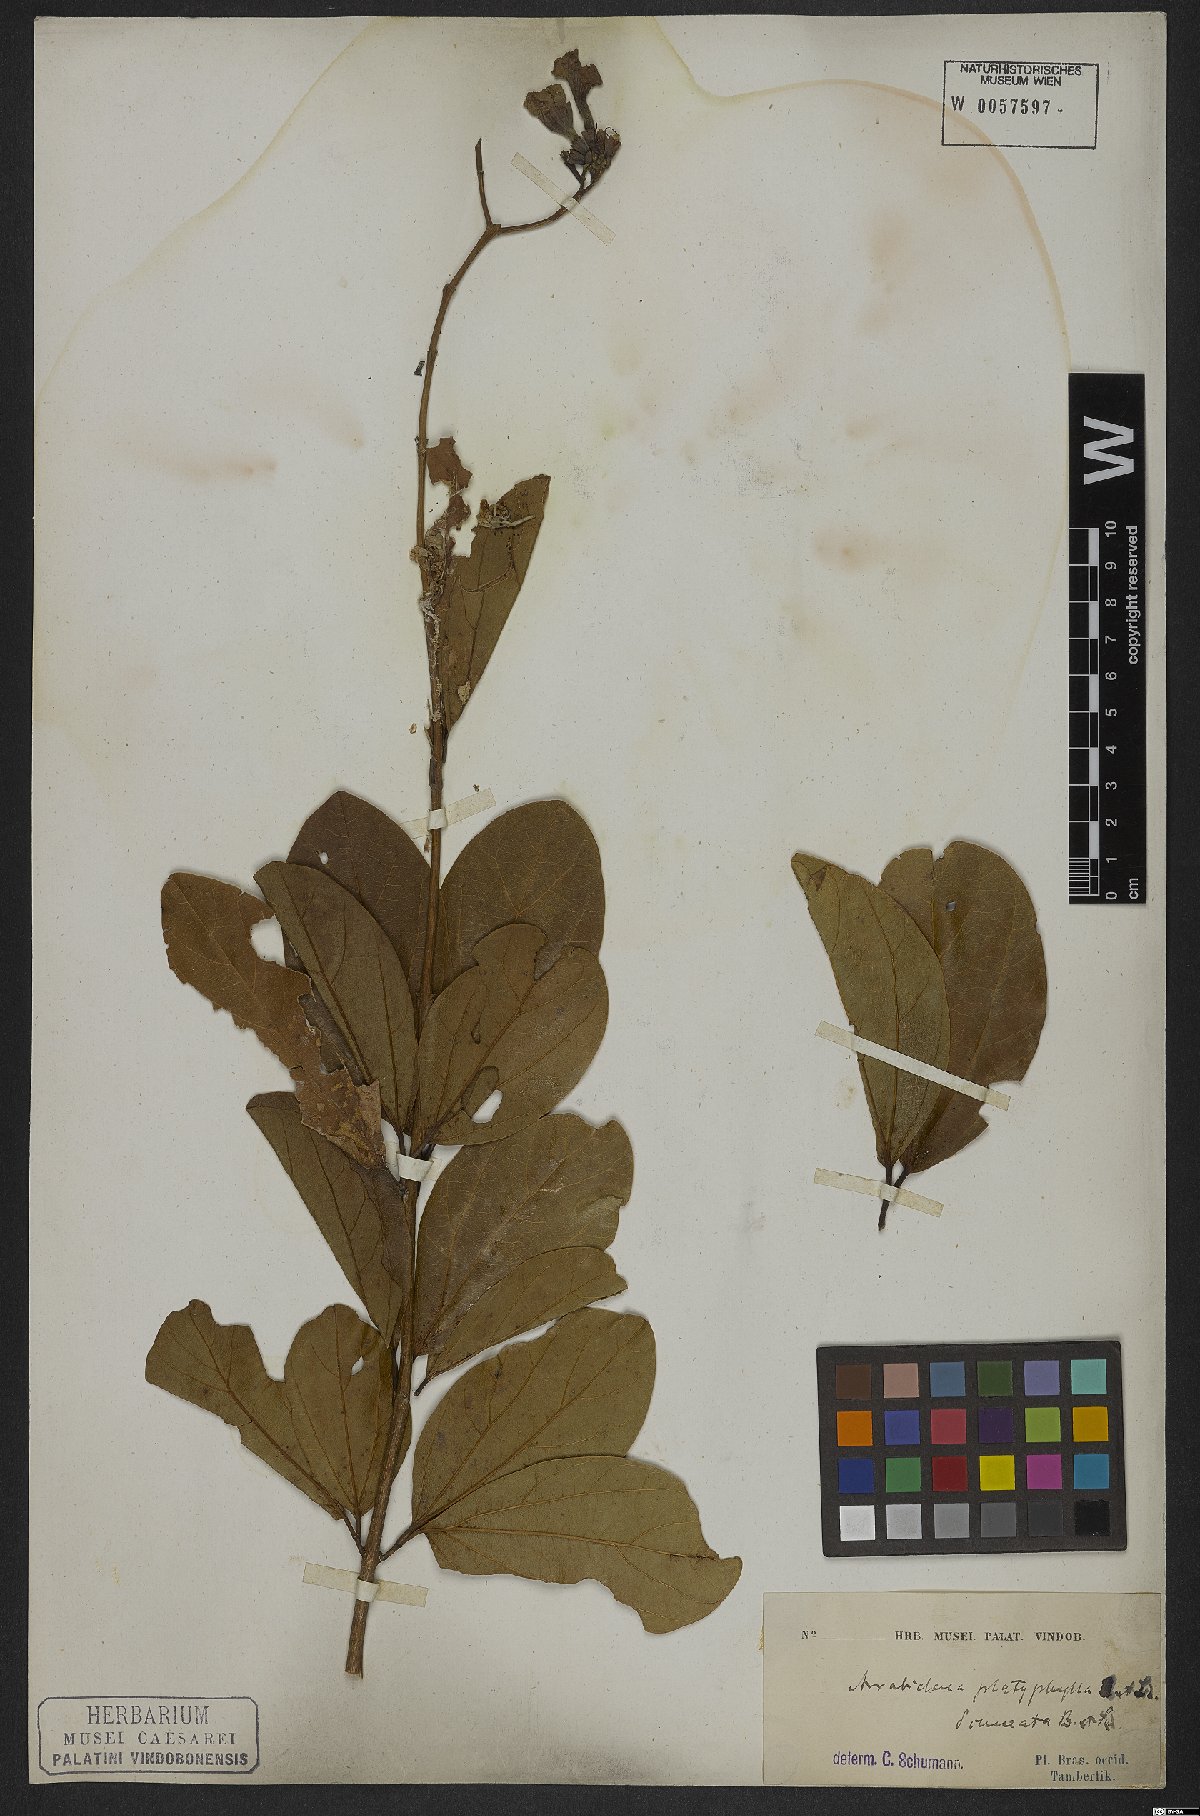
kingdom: Plantae
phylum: Tracheophyta
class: Magnoliopsida
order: Lamiales
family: Bignoniaceae
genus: Xylophragma
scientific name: Xylophragma platyphyllum
